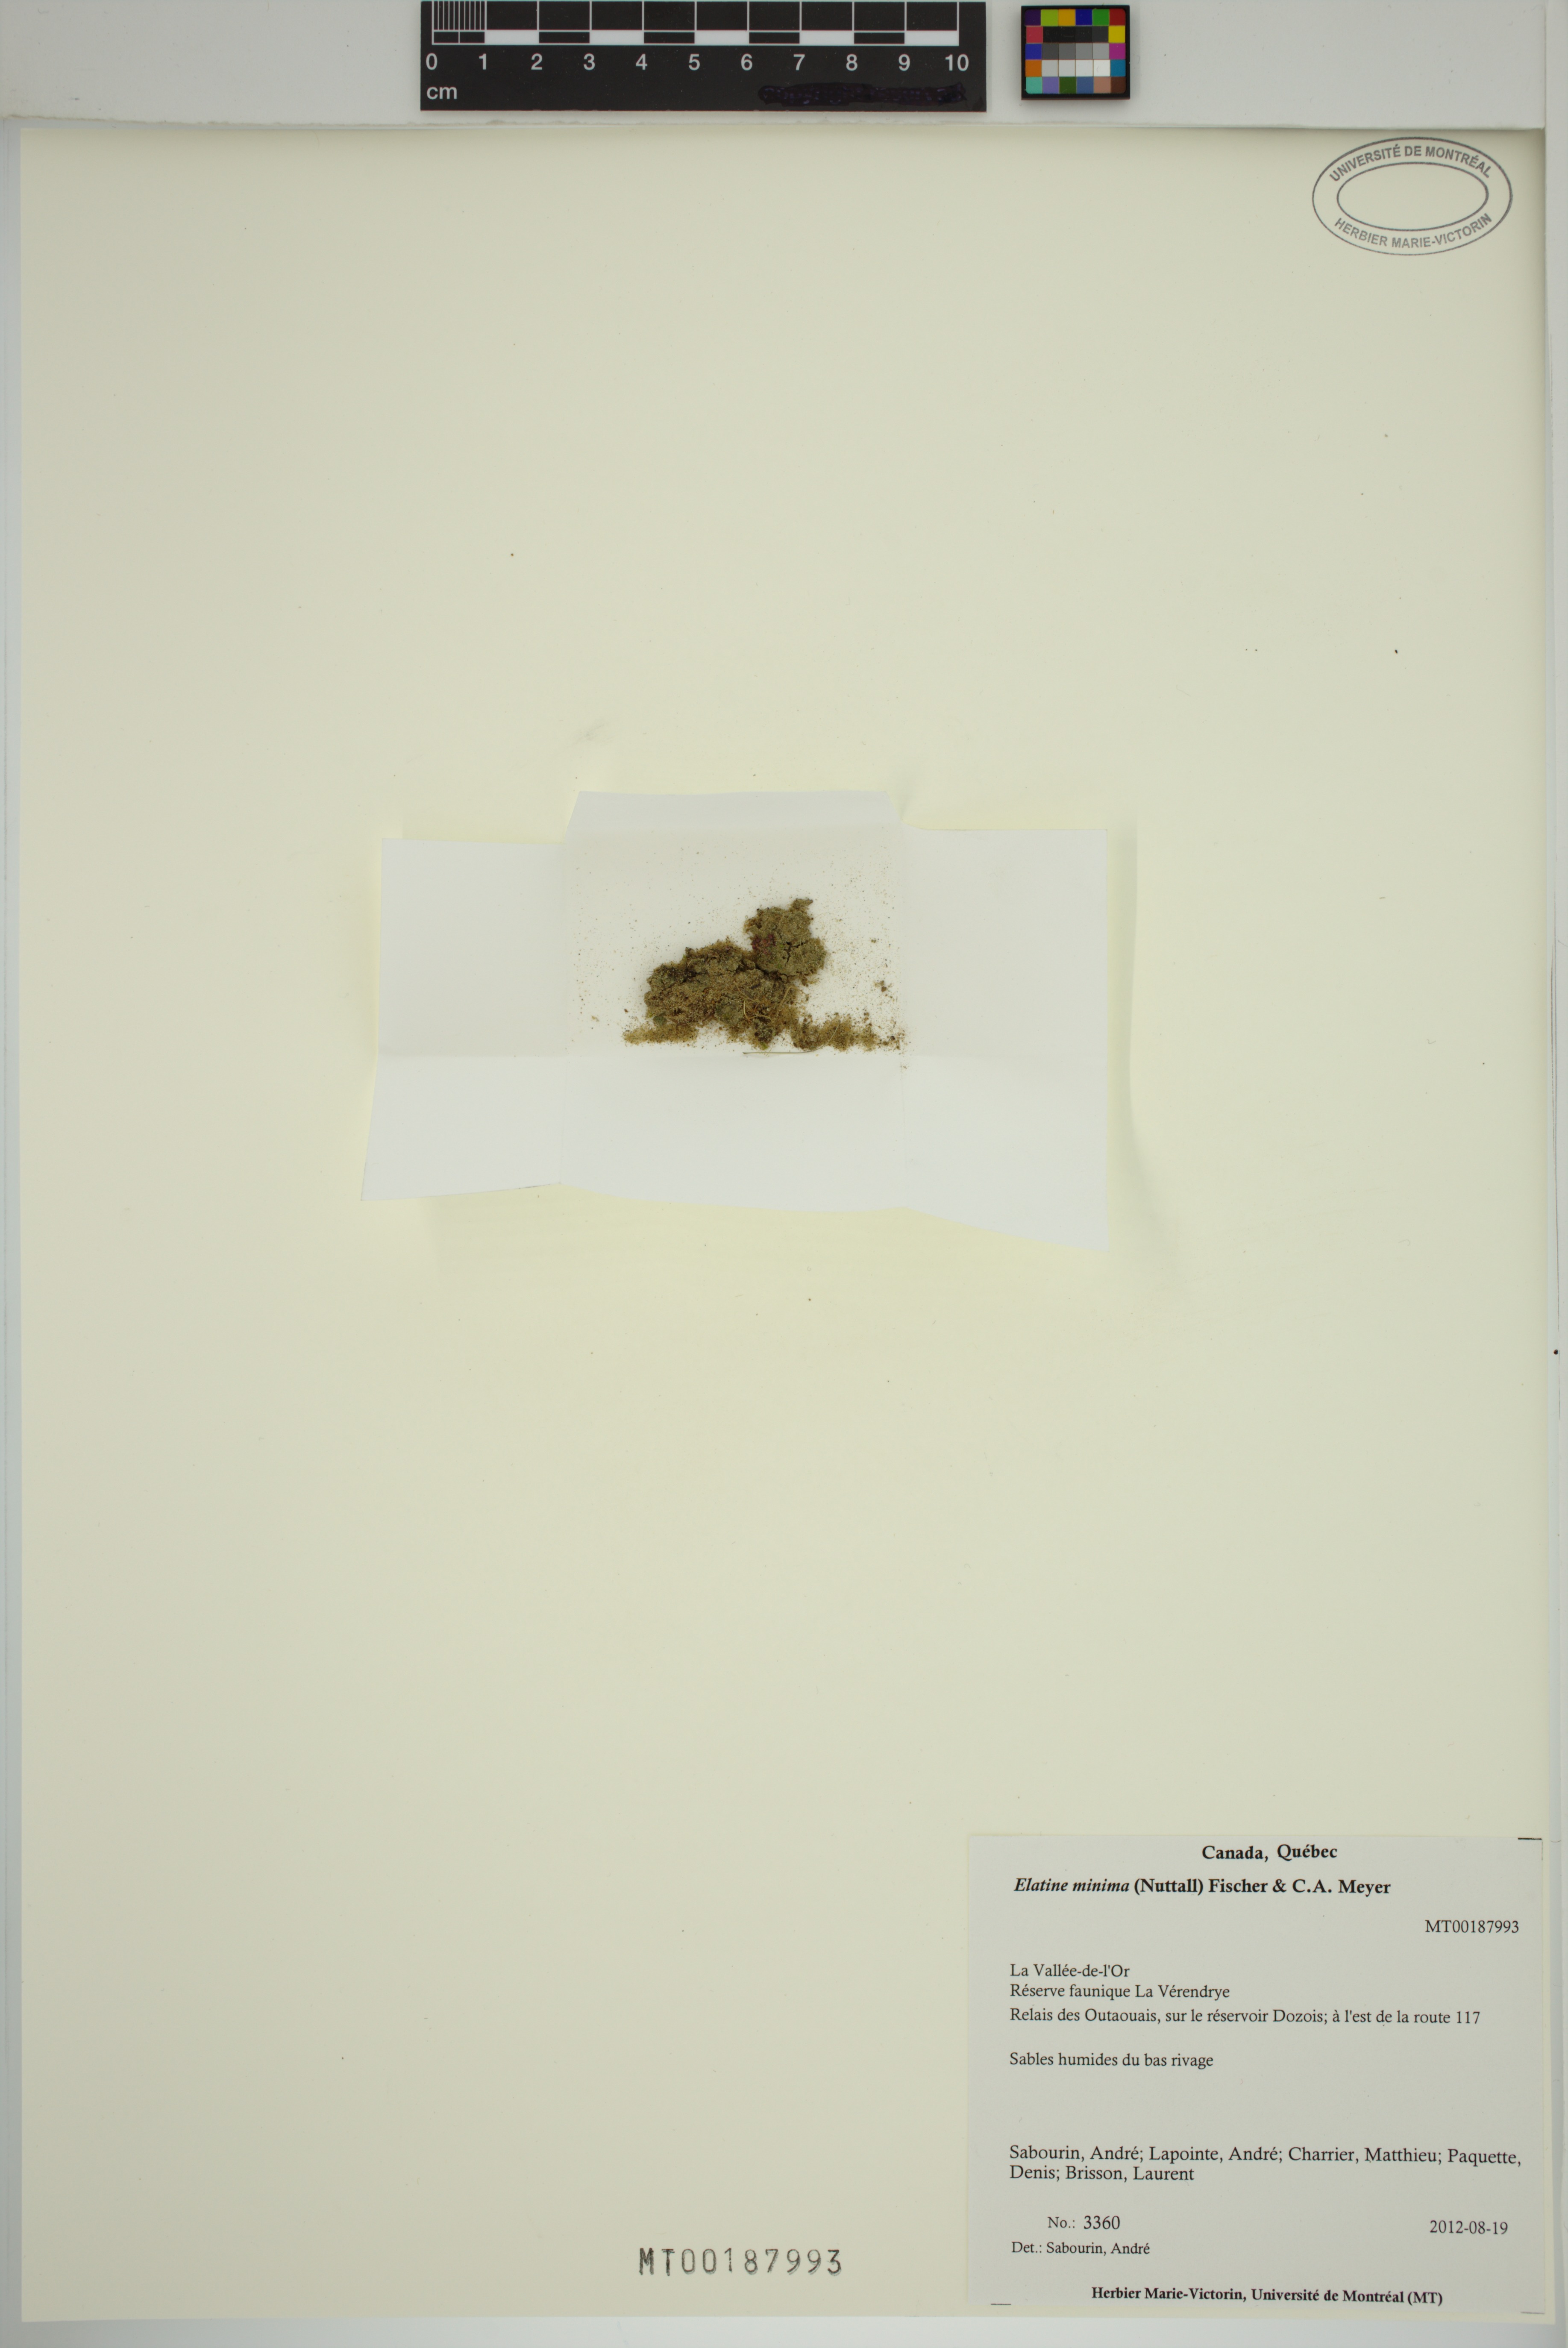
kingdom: Plantae
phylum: Tracheophyta
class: Magnoliopsida
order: Malpighiales
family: Elatinaceae
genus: Elatine
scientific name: Elatine minima
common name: Small waterwort
